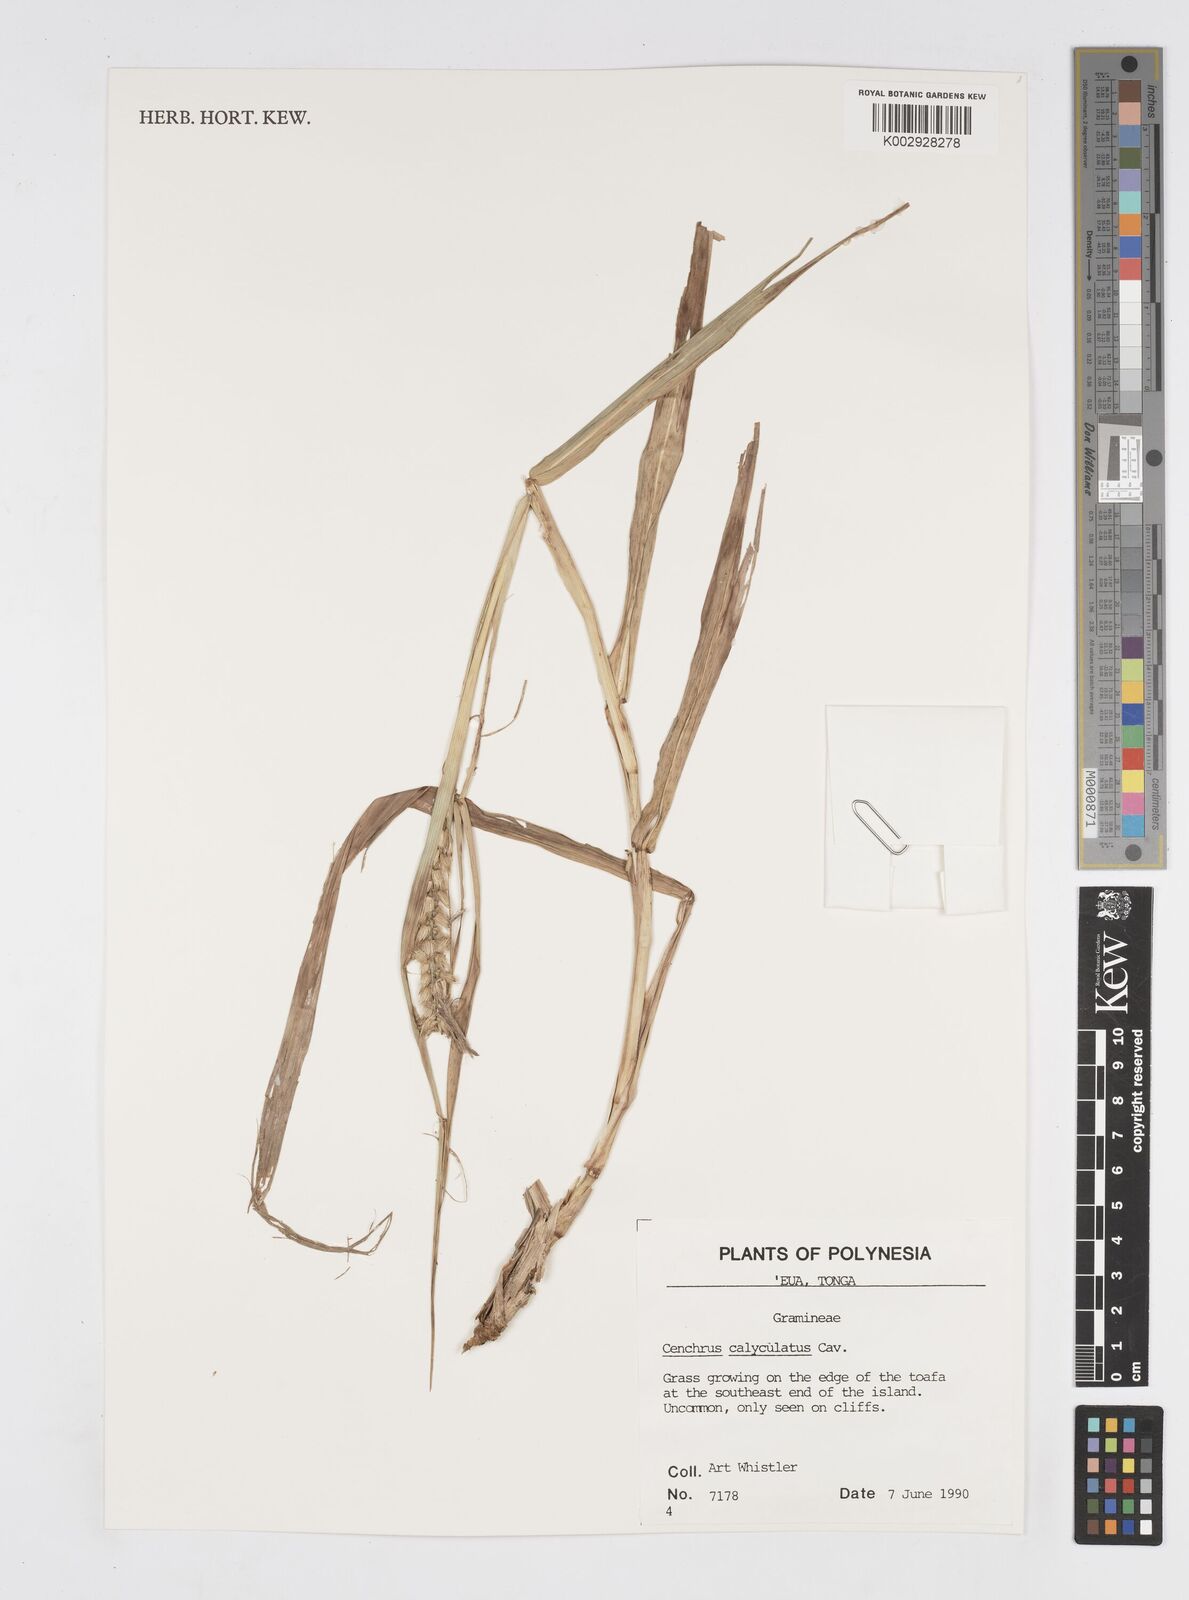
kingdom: Plantae
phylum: Tracheophyta
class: Liliopsida
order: Poales
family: Poaceae
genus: Cenchrus
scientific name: Cenchrus caliculatus
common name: Large bur grass
